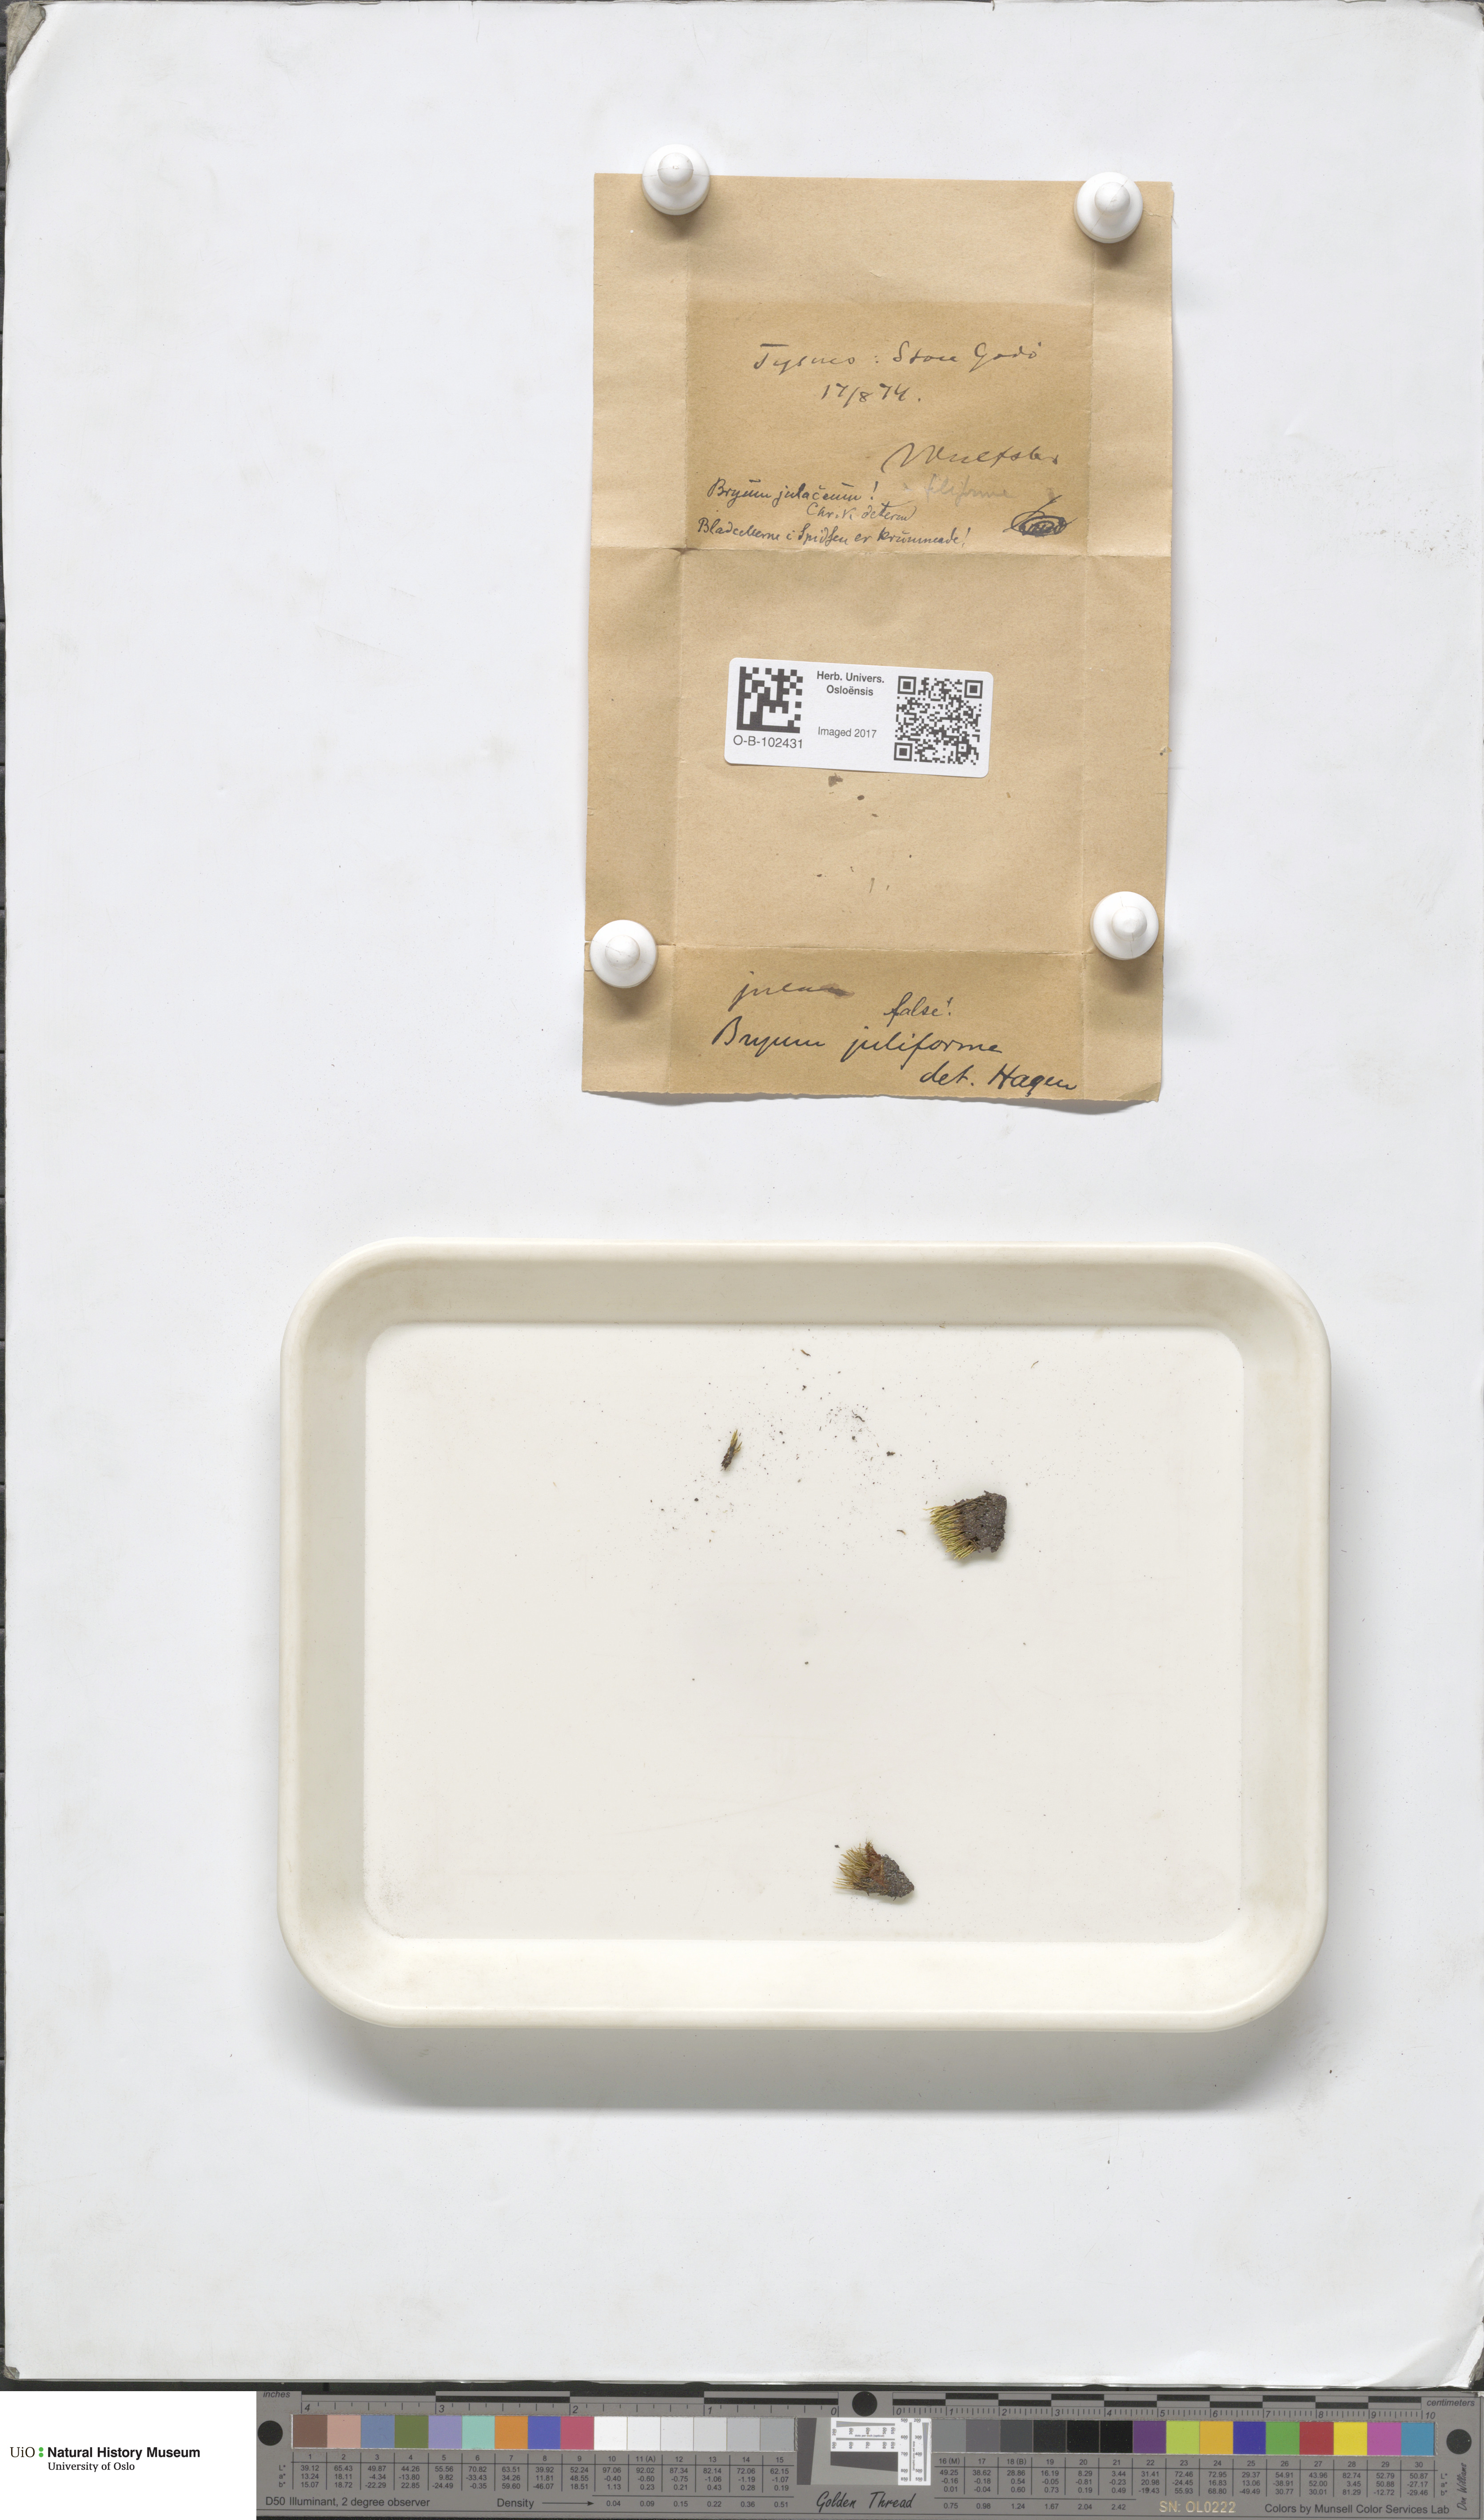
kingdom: Plantae
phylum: Bryophyta
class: Bryopsida
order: Bryales
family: Bryaceae
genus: Anomobryum
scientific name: Anomobryum julaceum
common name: Slender silver moss
